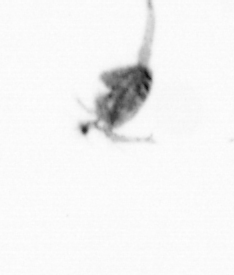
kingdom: Animalia
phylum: Arthropoda
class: Copepoda
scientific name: Copepoda
